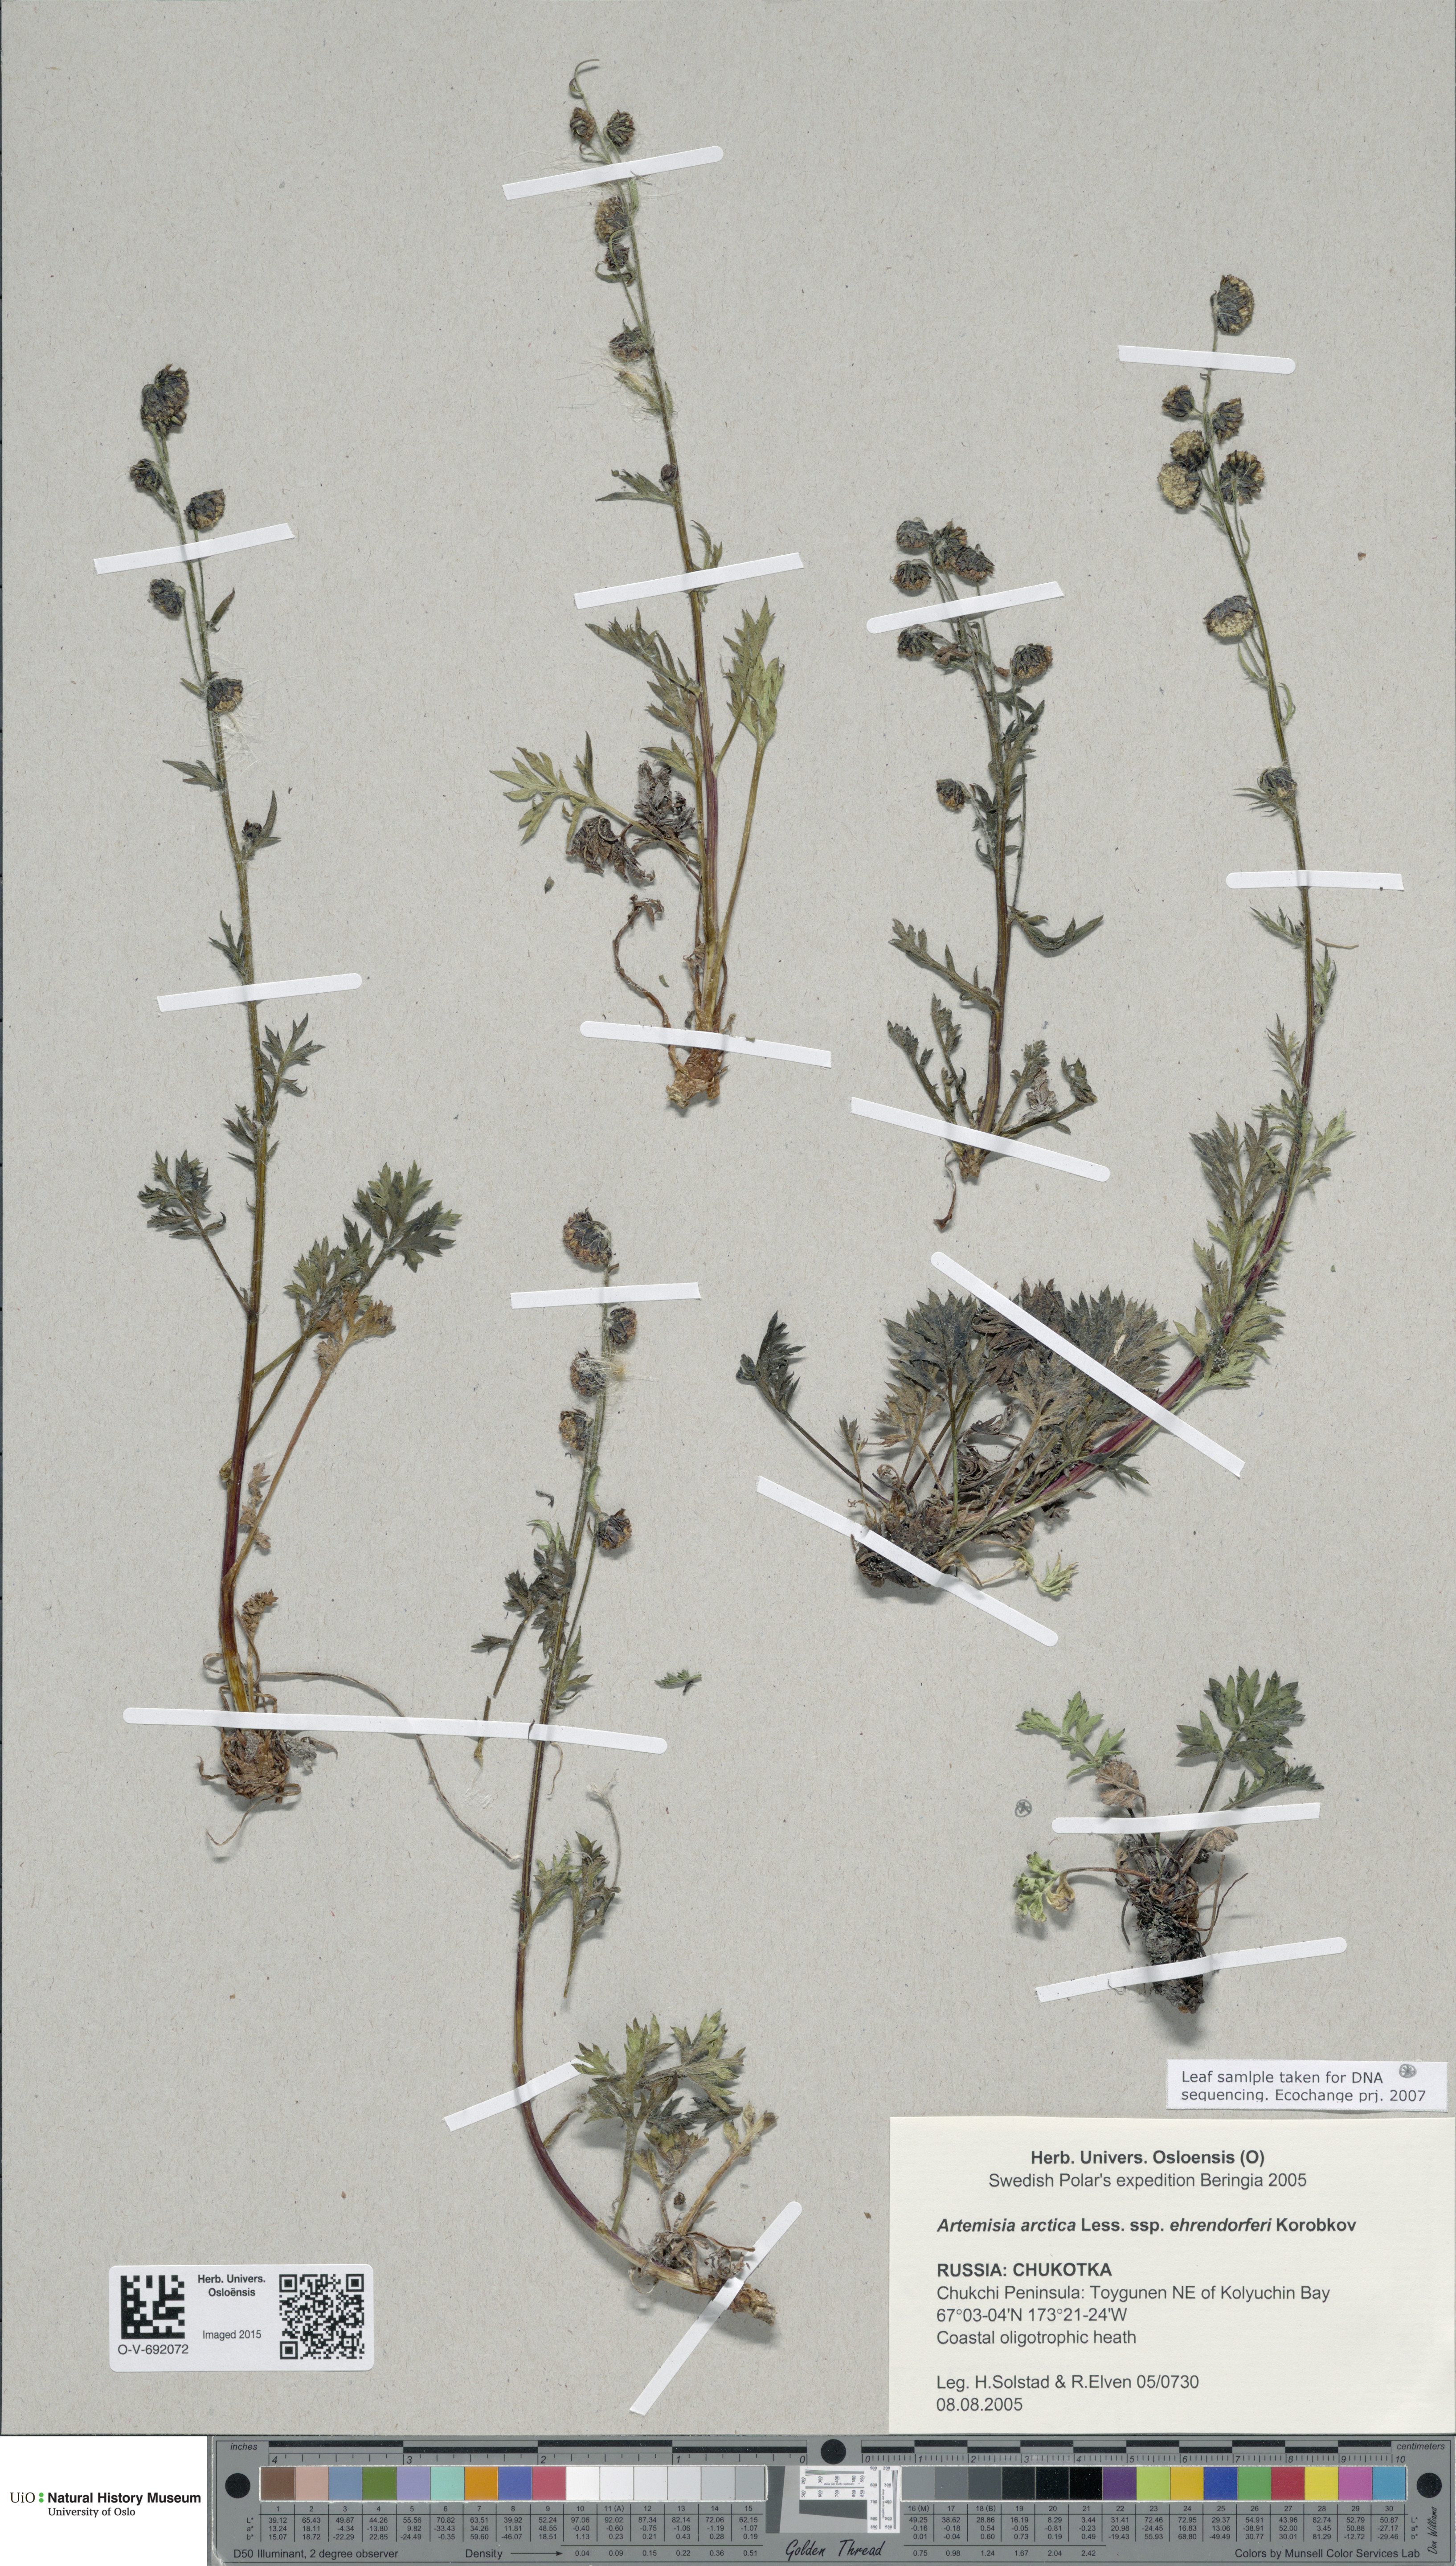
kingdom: Plantae
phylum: Tracheophyta
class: Magnoliopsida
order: Asterales
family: Asteraceae
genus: Artemisia
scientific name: Artemisia norvegica
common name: Norwegian mugwort
